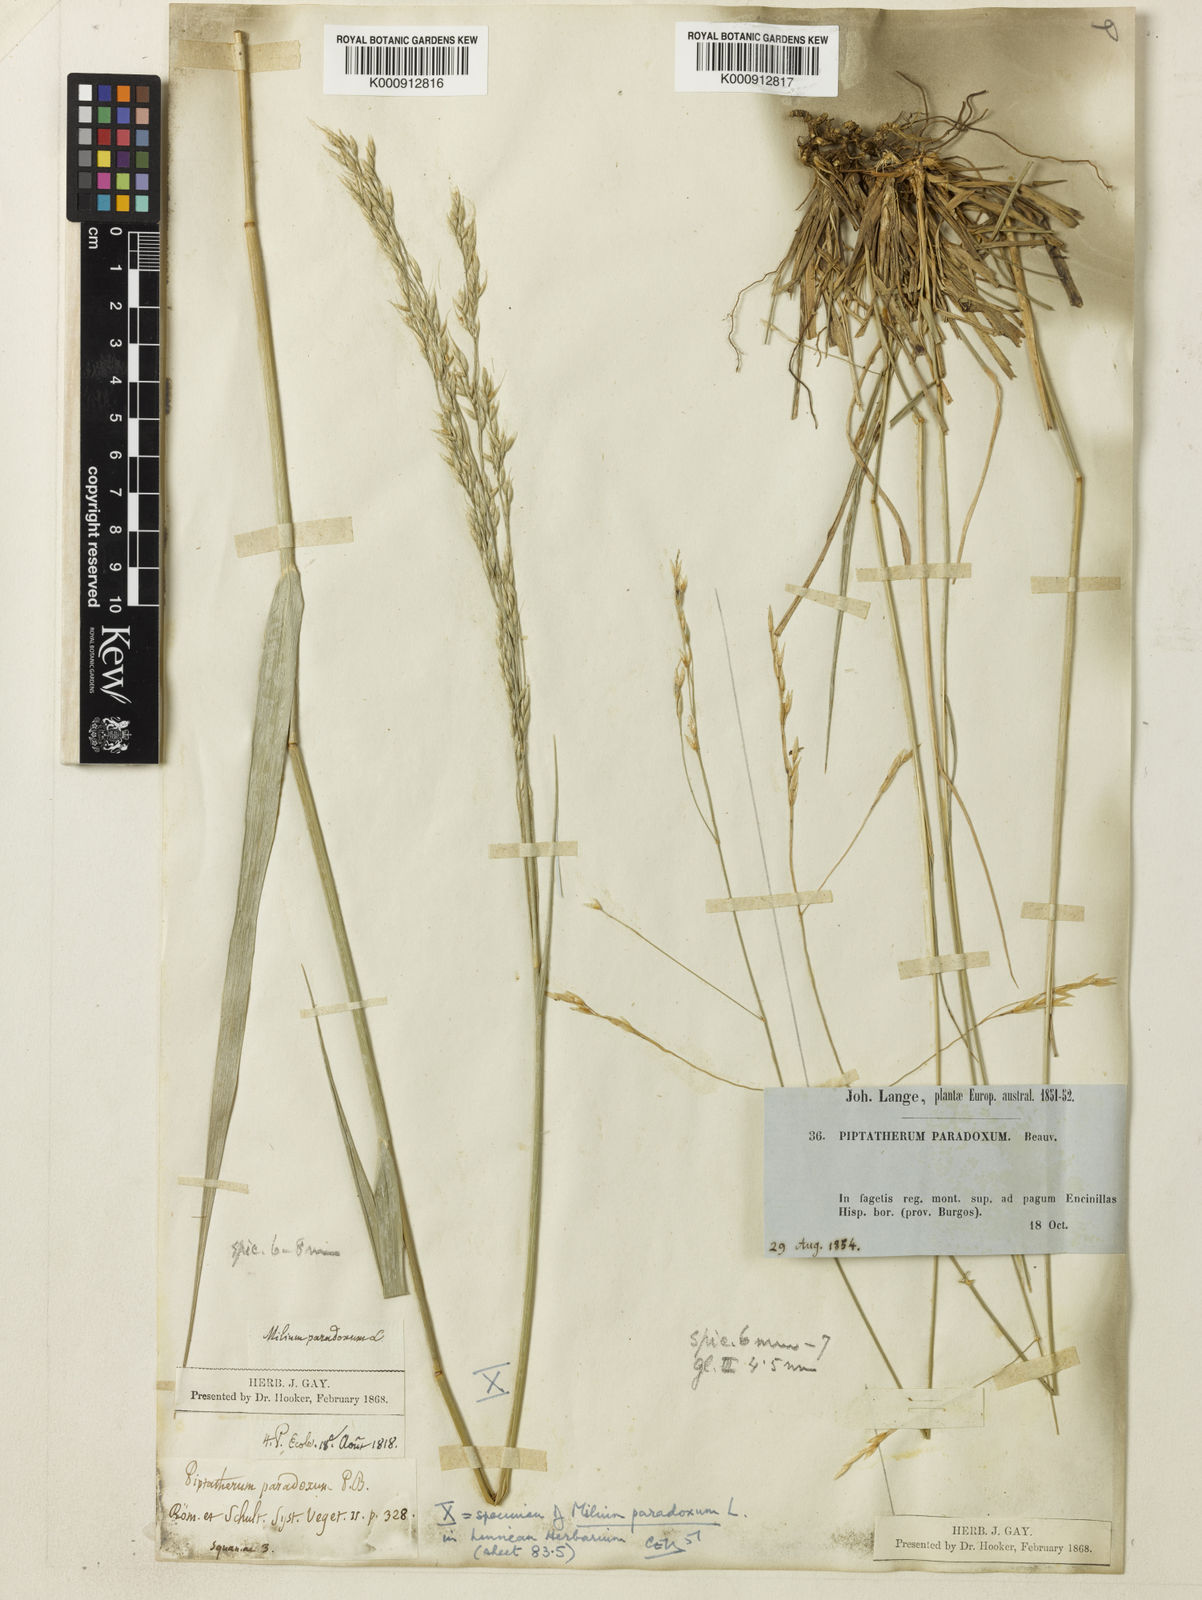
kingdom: Plantae
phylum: Tracheophyta
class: Liliopsida
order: Poales
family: Poaceae
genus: Achnatherum
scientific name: Achnatherum paradoxum
